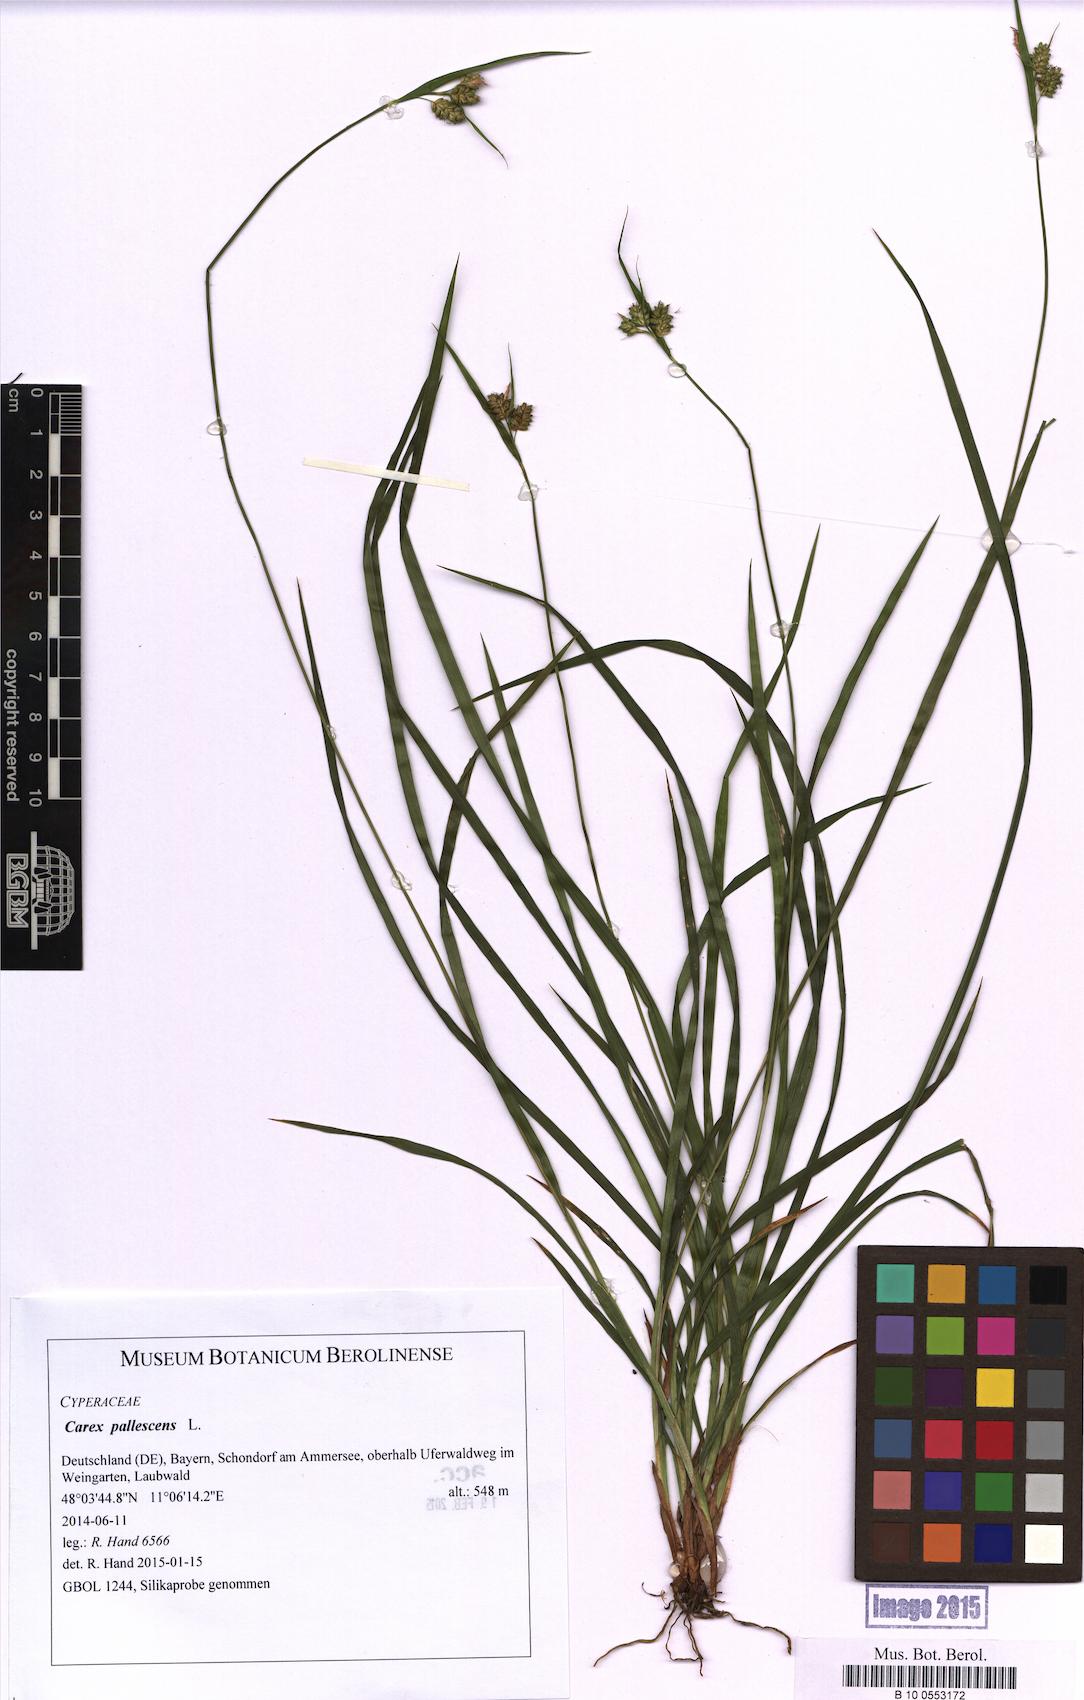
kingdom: Plantae
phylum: Tracheophyta
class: Liliopsida
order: Poales
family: Cyperaceae
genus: Carex
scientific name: Carex pallescens
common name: Pale sedge
